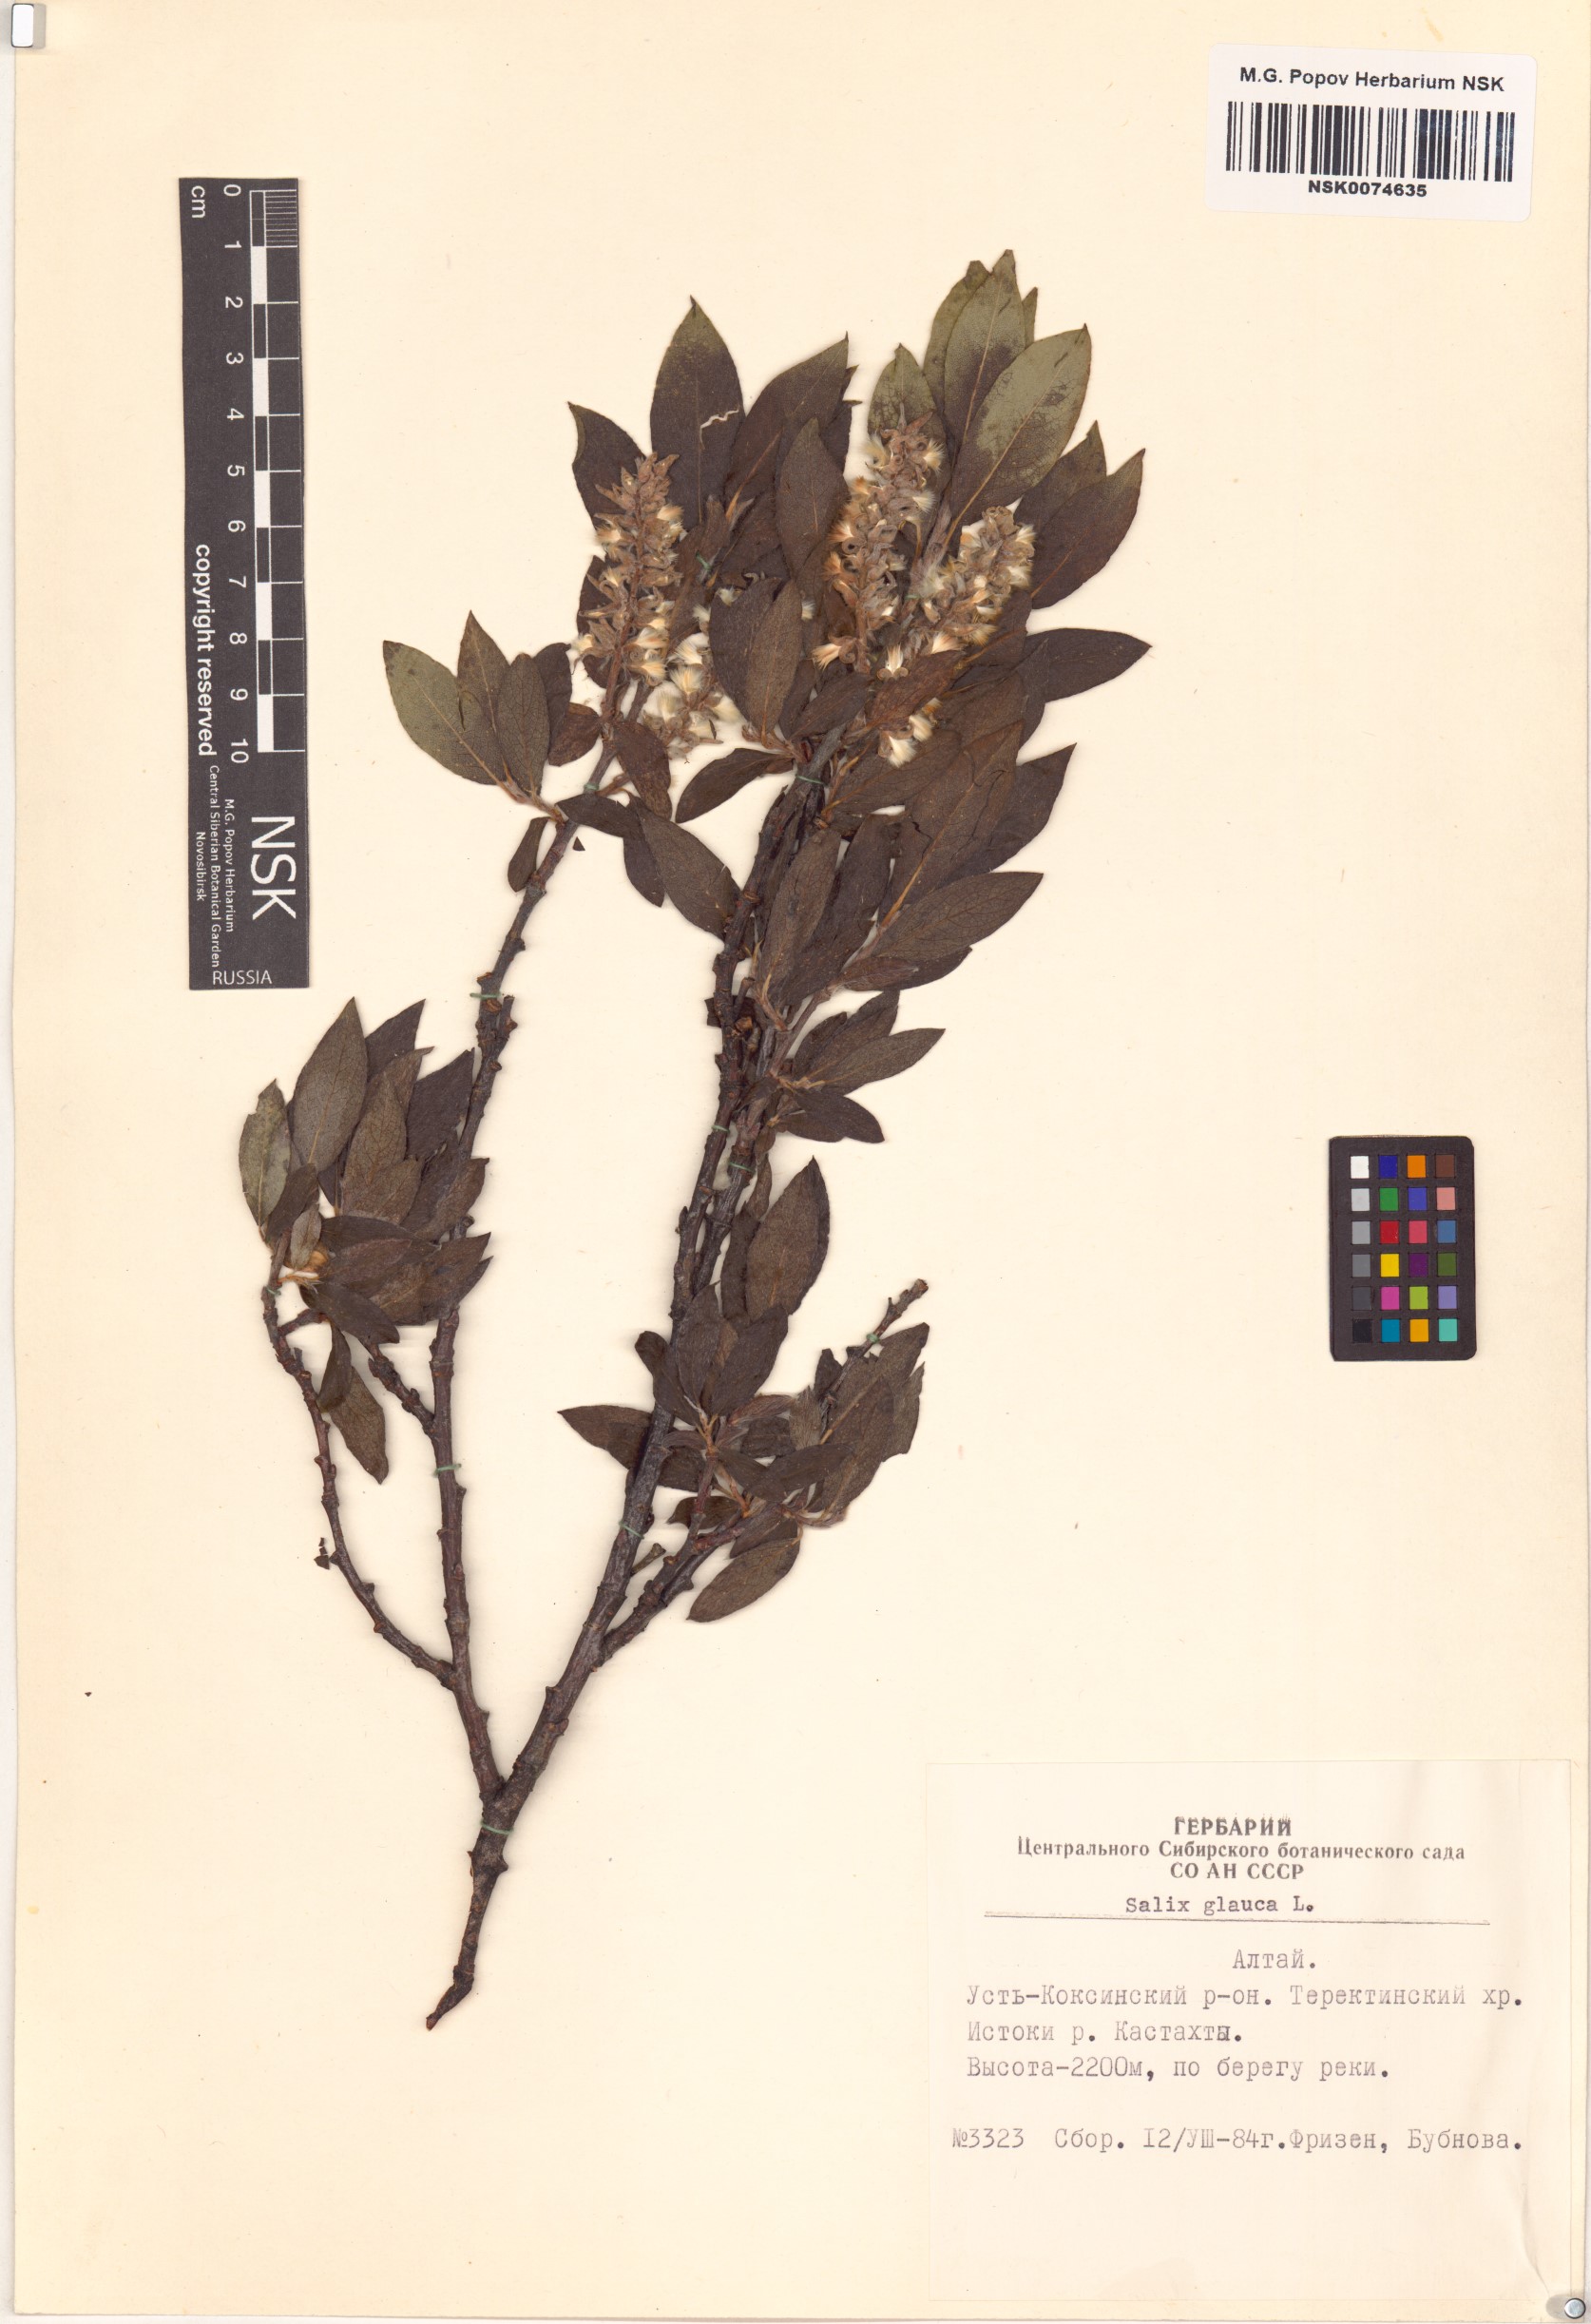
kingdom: Plantae
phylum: Tracheophyta
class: Magnoliopsida
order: Malpighiales
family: Salicaceae
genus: Salix
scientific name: Salix glauca
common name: Glaucous willow
